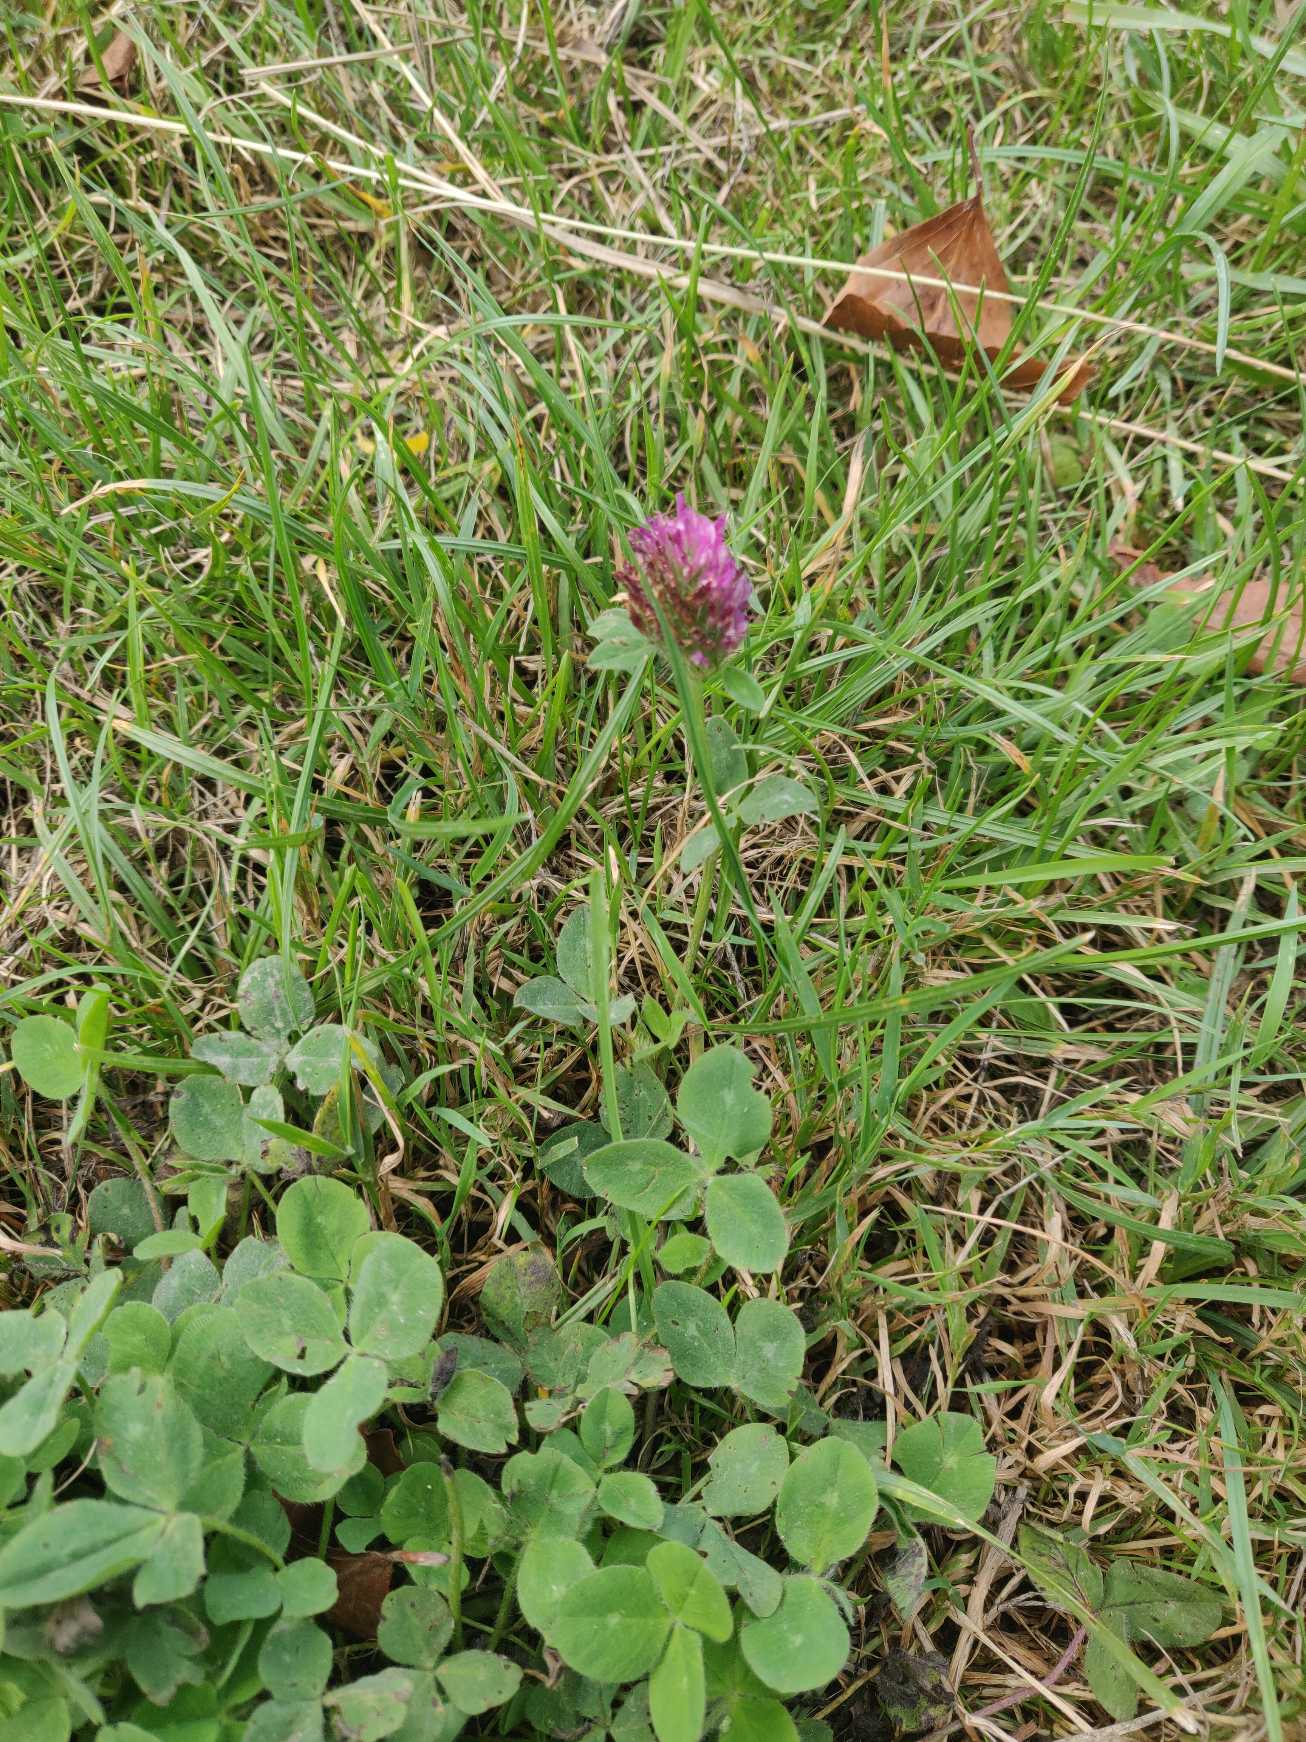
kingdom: Plantae
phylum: Tracheophyta
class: Magnoliopsida
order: Fabales
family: Fabaceae
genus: Trifolium
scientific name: Trifolium pratense
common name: Rød-kløver
